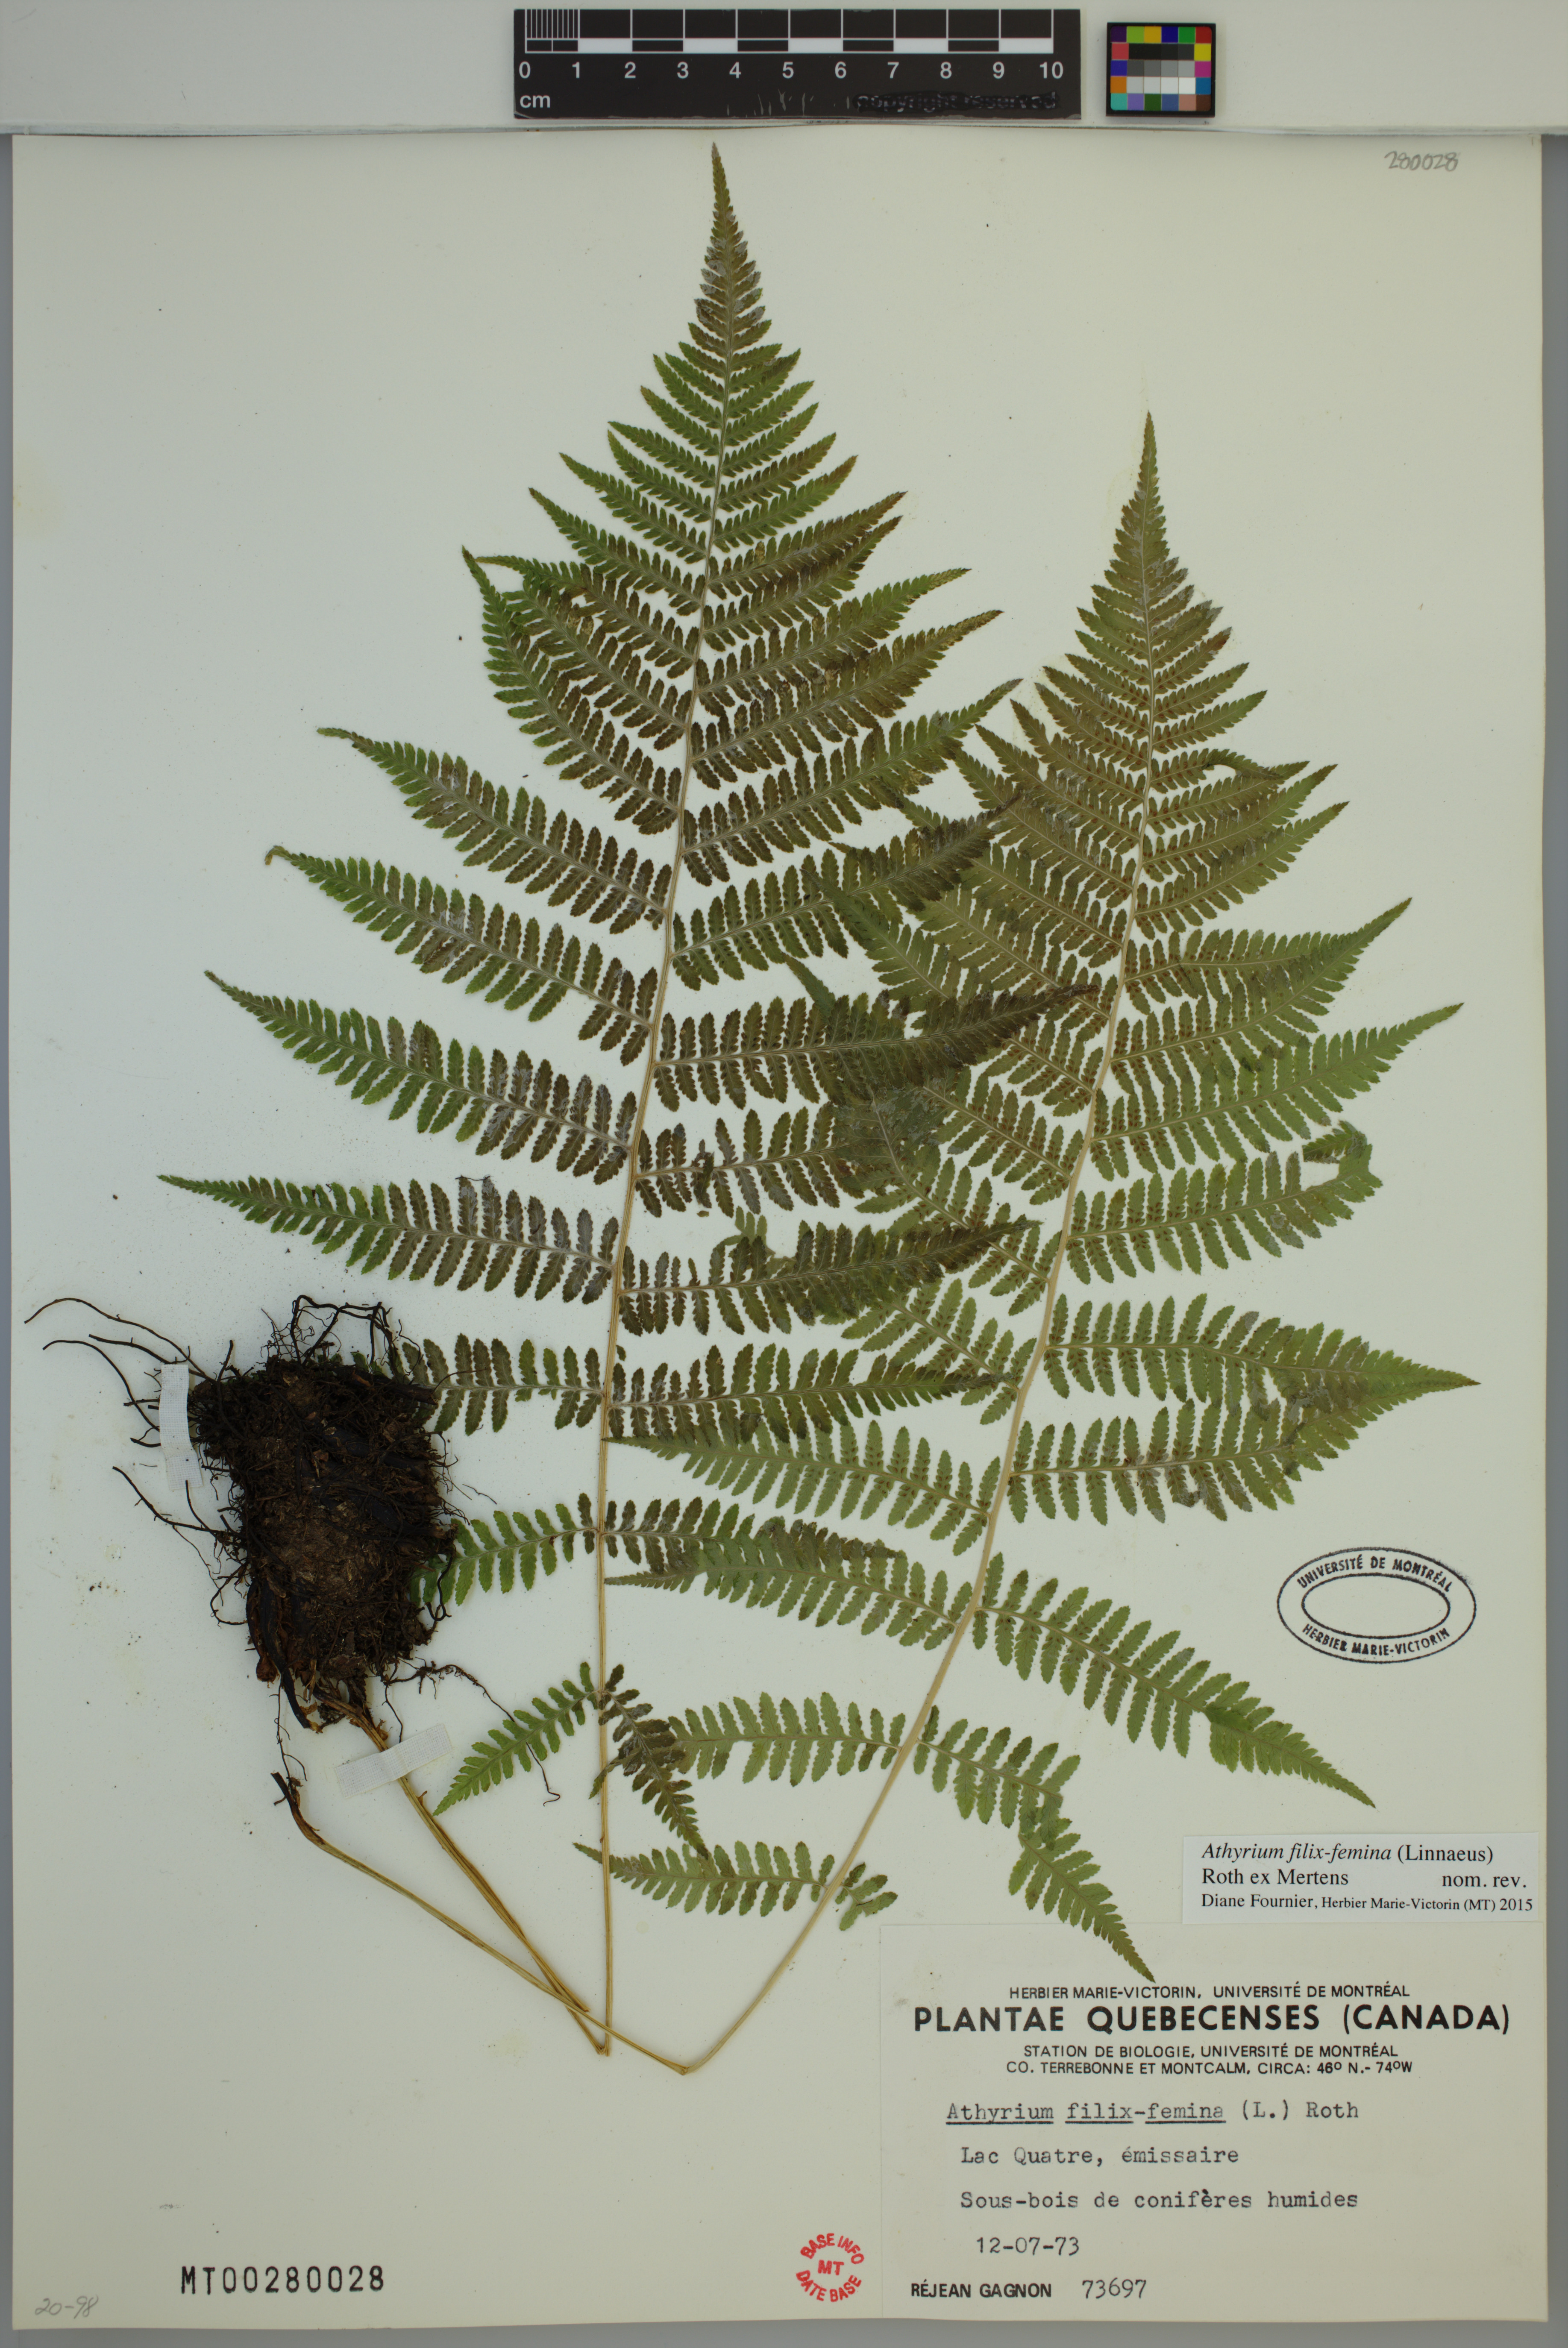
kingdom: Plantae
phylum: Tracheophyta
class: Polypodiopsida
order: Polypodiales
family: Athyriaceae
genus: Athyrium
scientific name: Athyrium filix-femina
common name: Lady fern
